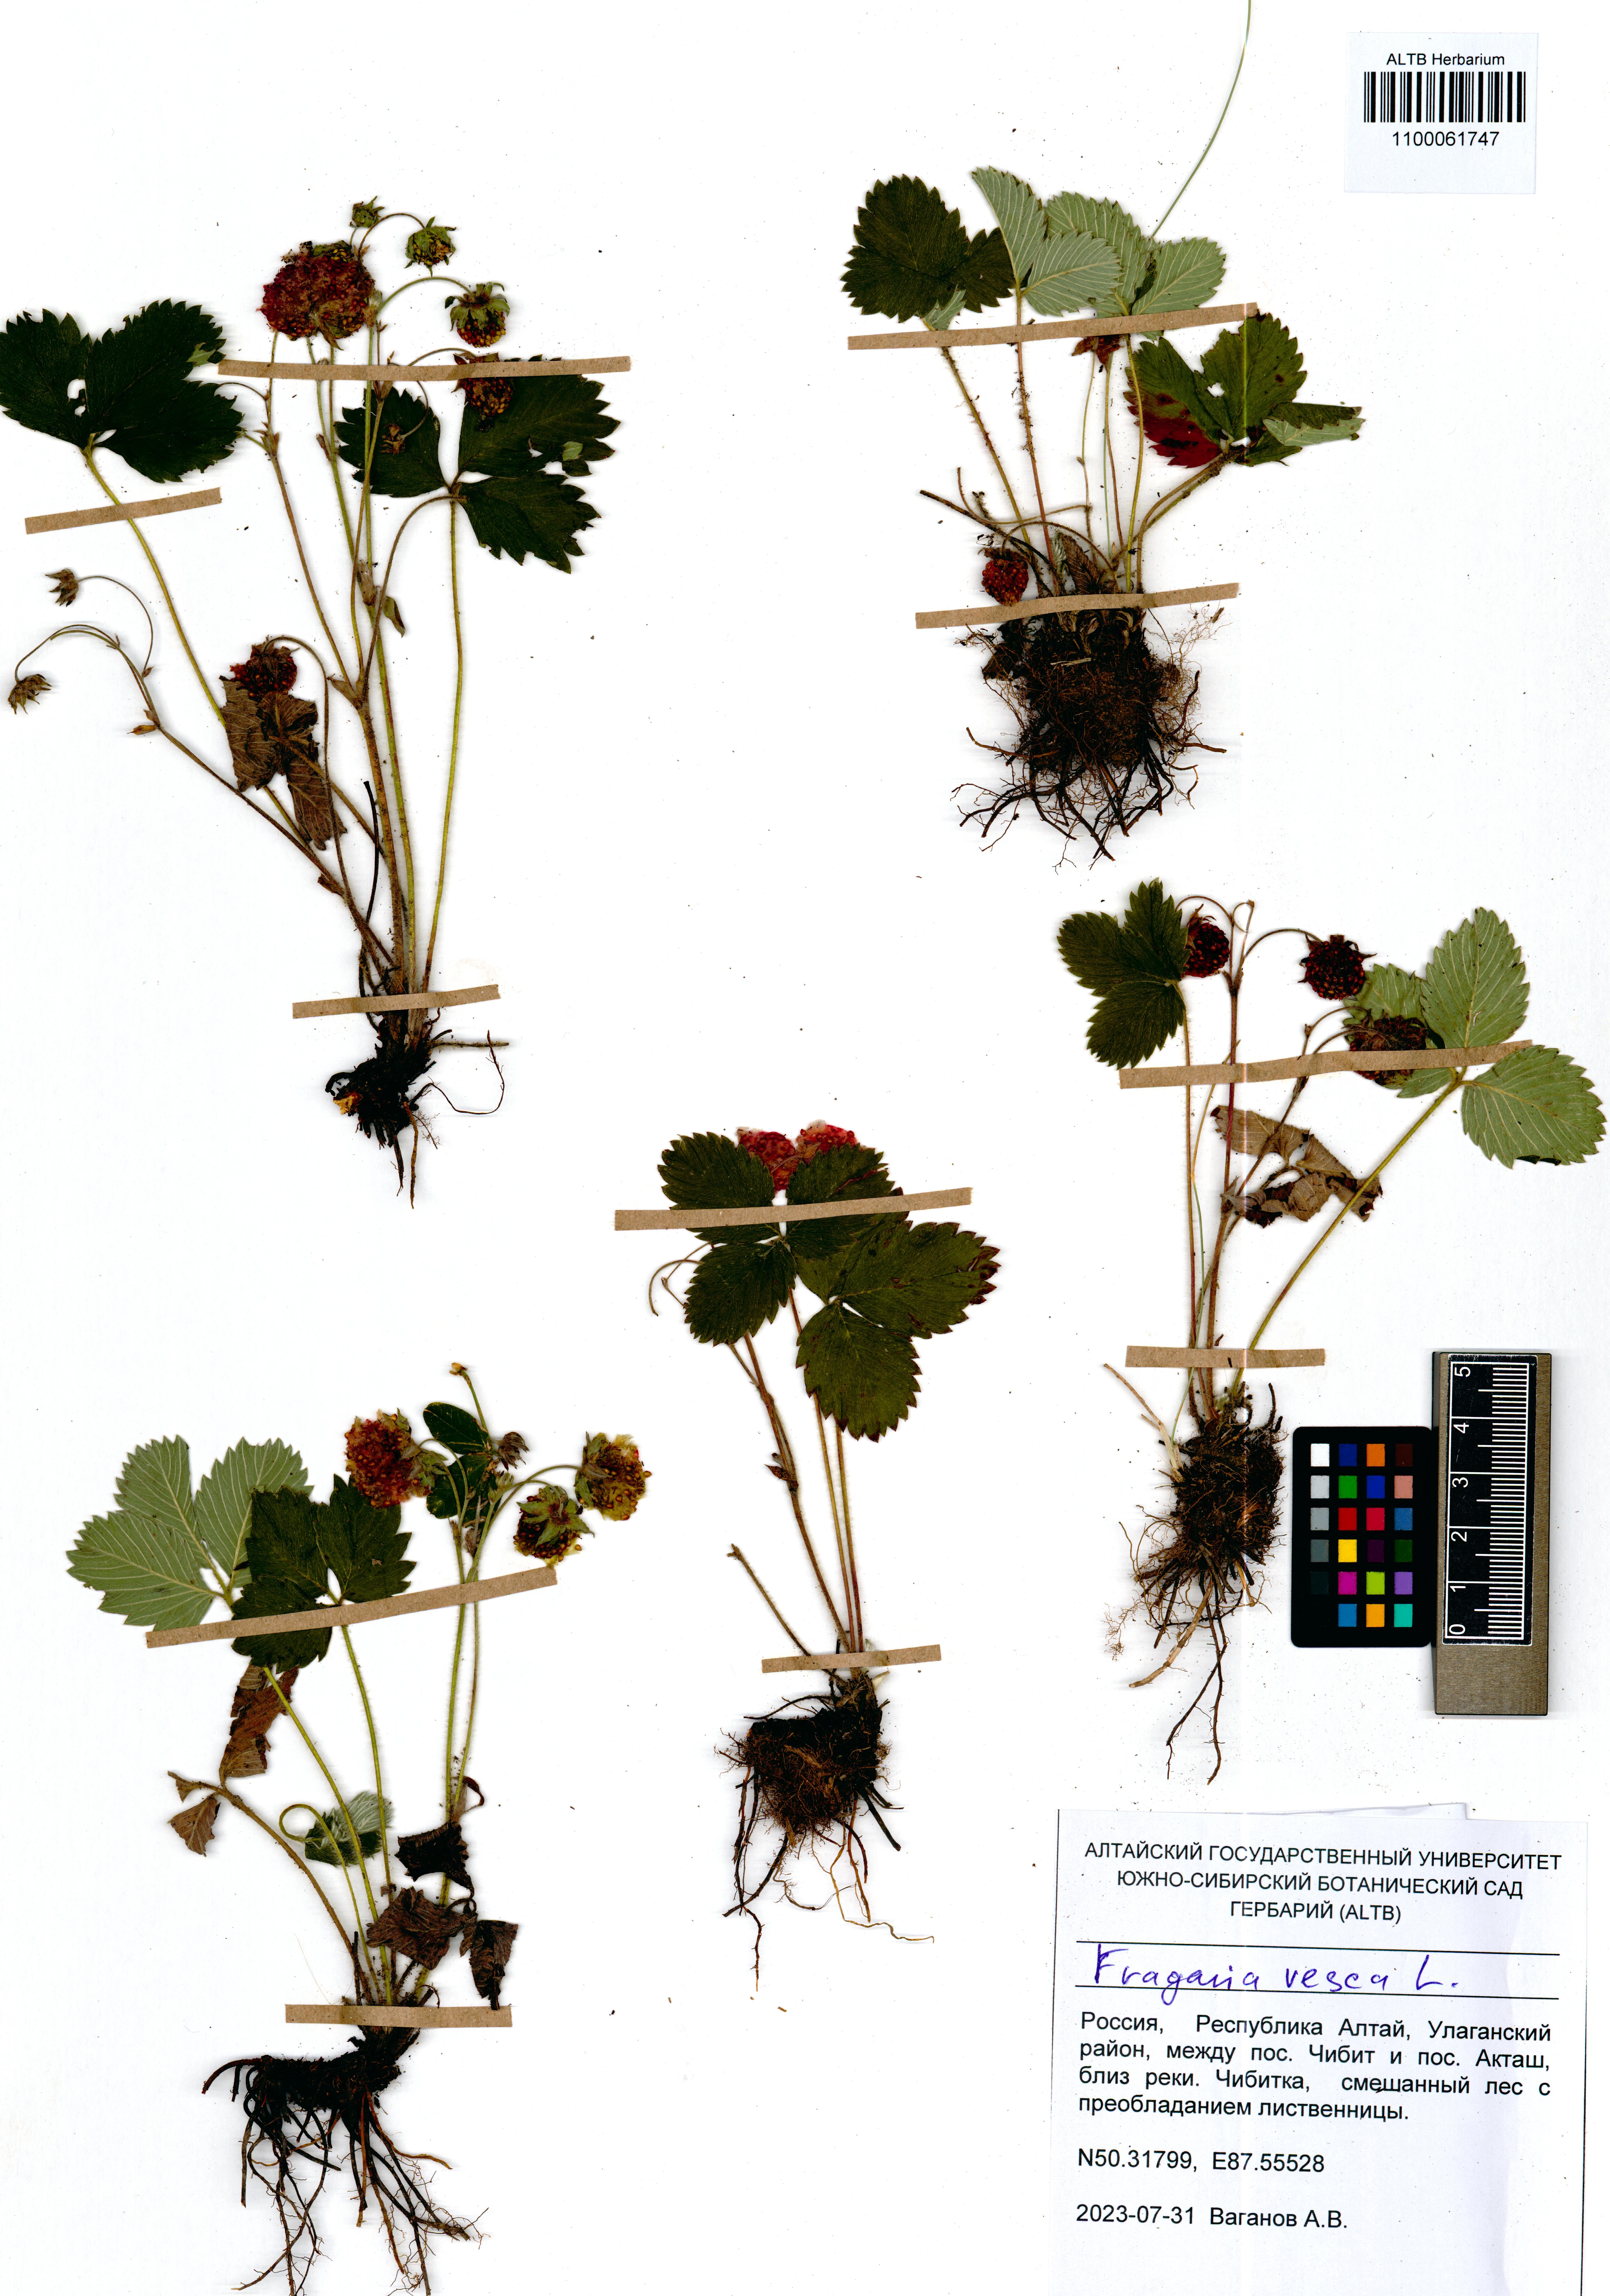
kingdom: Plantae
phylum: Tracheophyta
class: Magnoliopsida
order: Rosales
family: Rosaceae
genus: Fragaria
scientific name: Fragaria viridis
